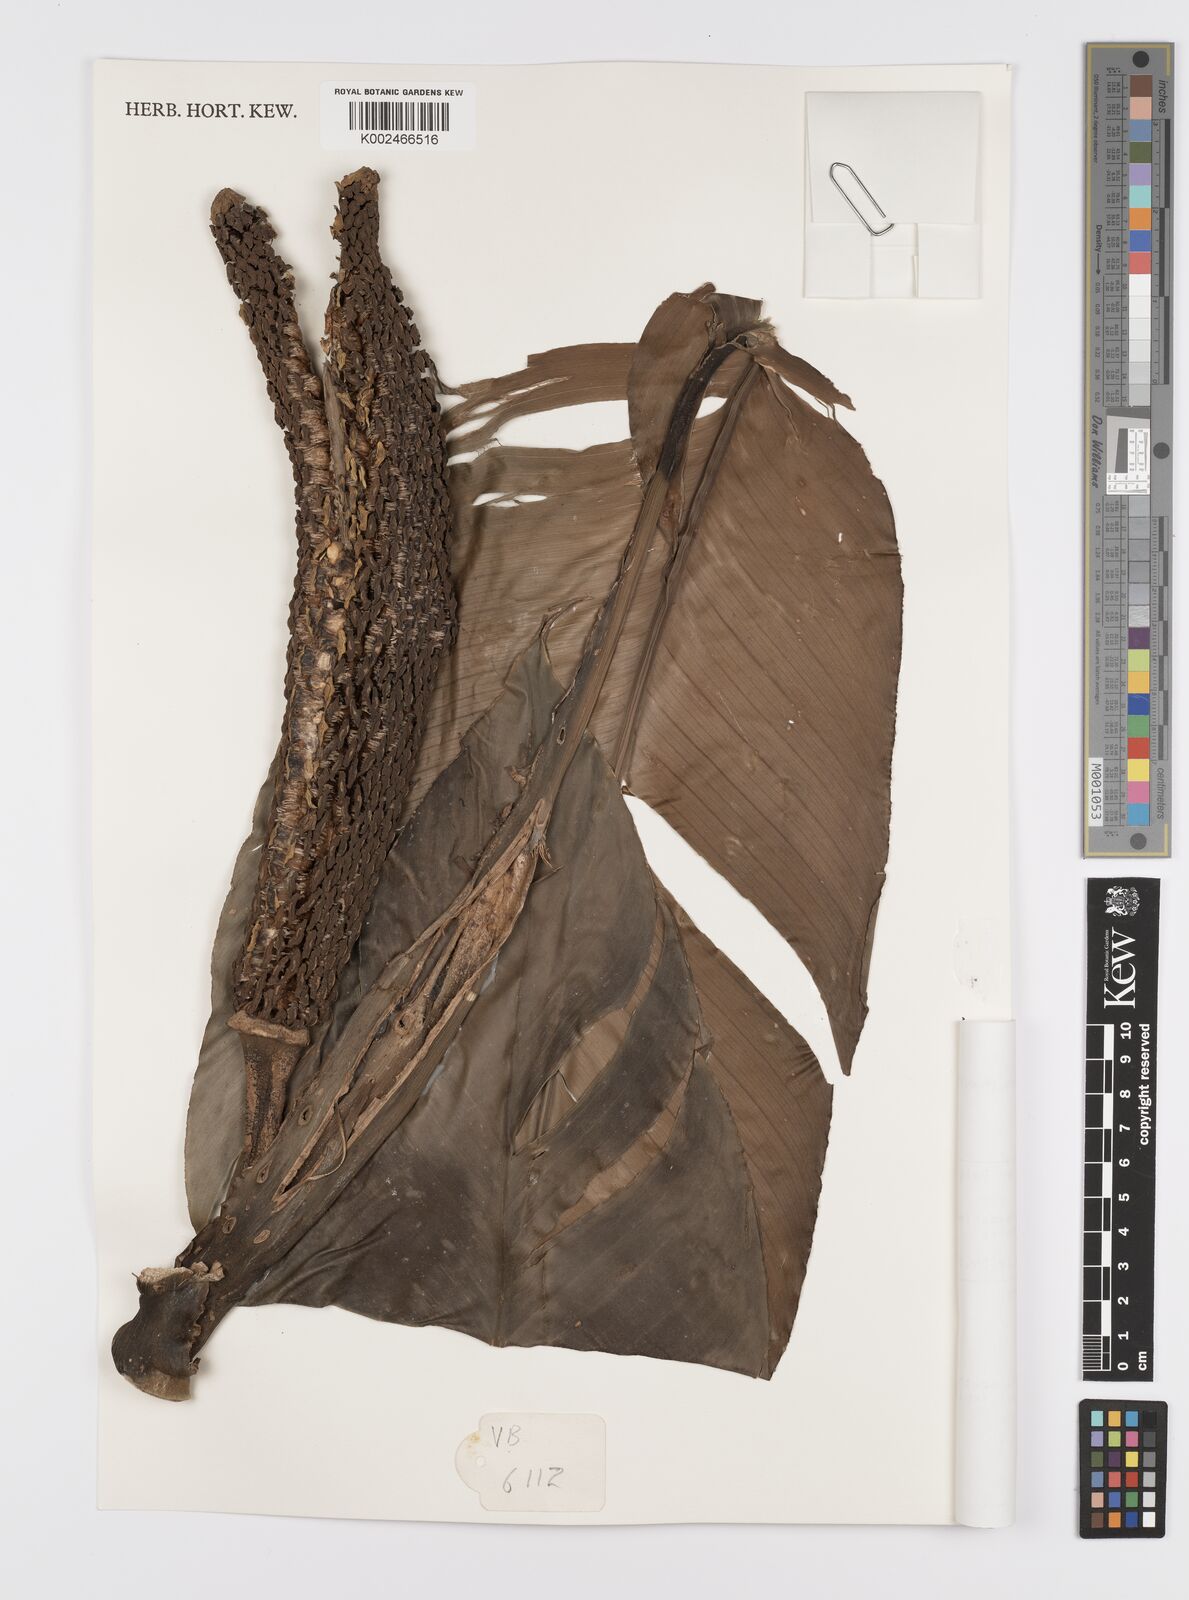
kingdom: Plantae
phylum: Tracheophyta
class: Liliopsida
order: Alismatales
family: Araceae
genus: Scindapsus
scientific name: Scindapsus latifolius
